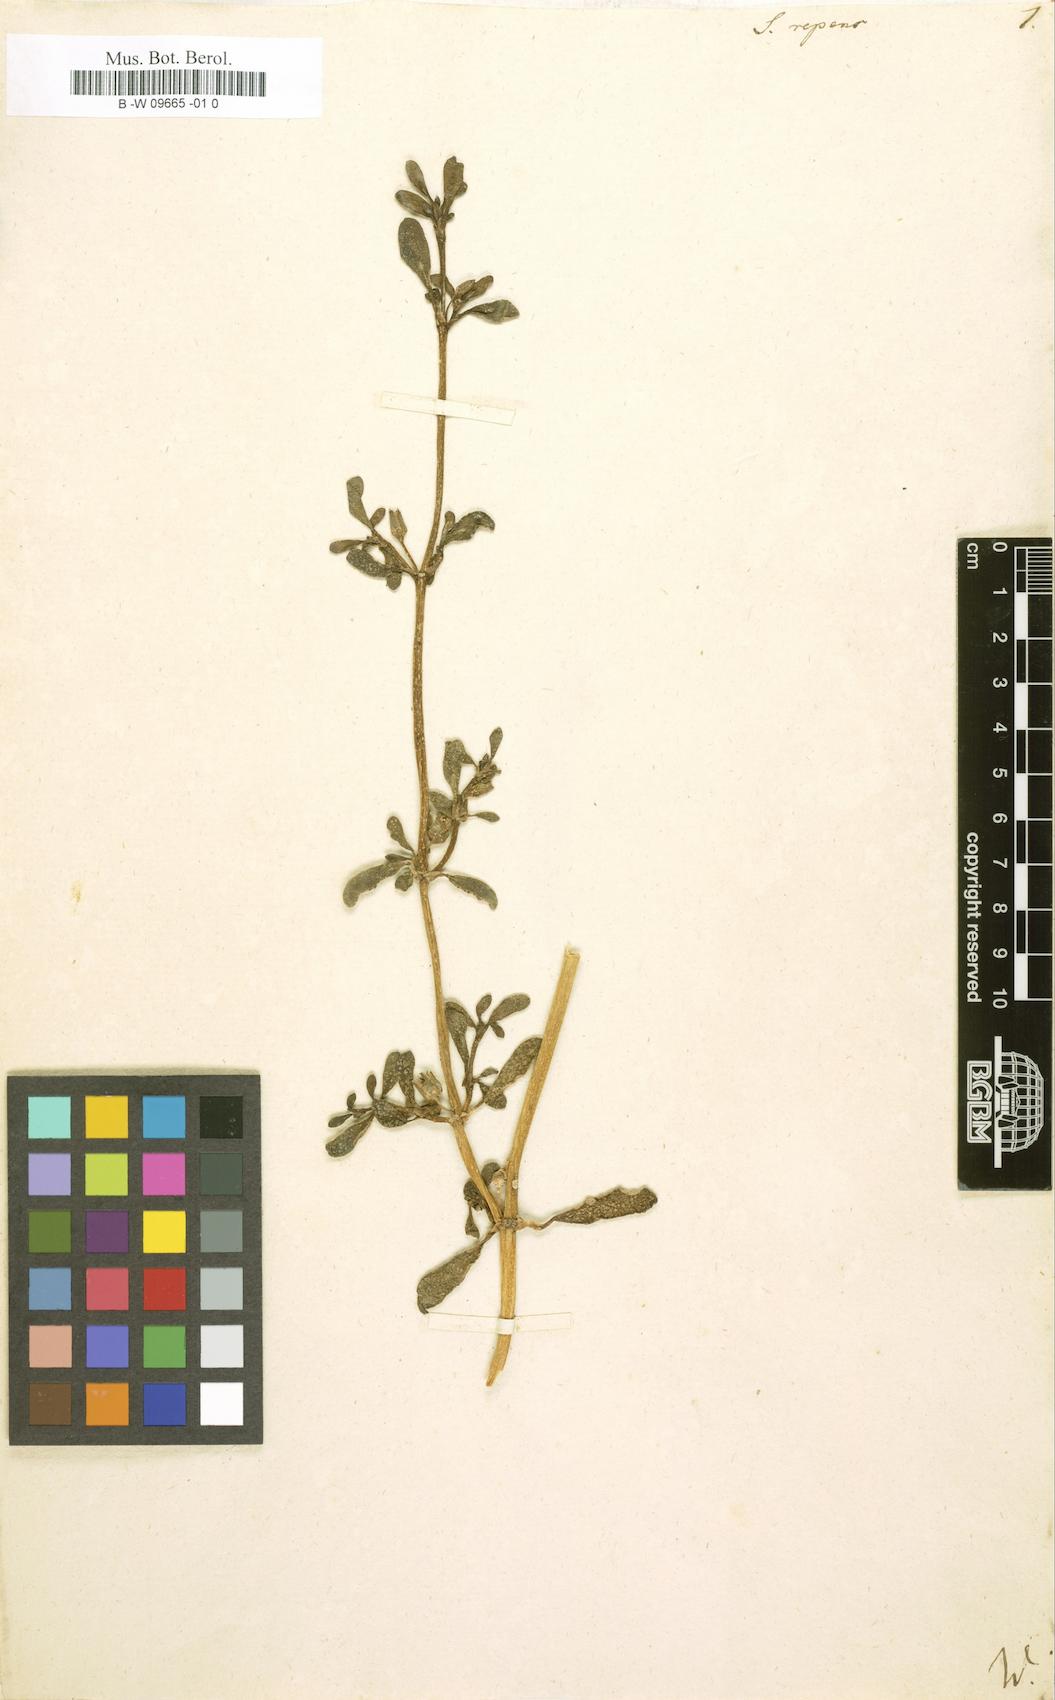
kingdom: Plantae
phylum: Tracheophyta
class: Magnoliopsida
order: Caryophyllales
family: Aizoaceae
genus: Sesuvium
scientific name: Sesuvium portulacastrum
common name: Sea-purslane
